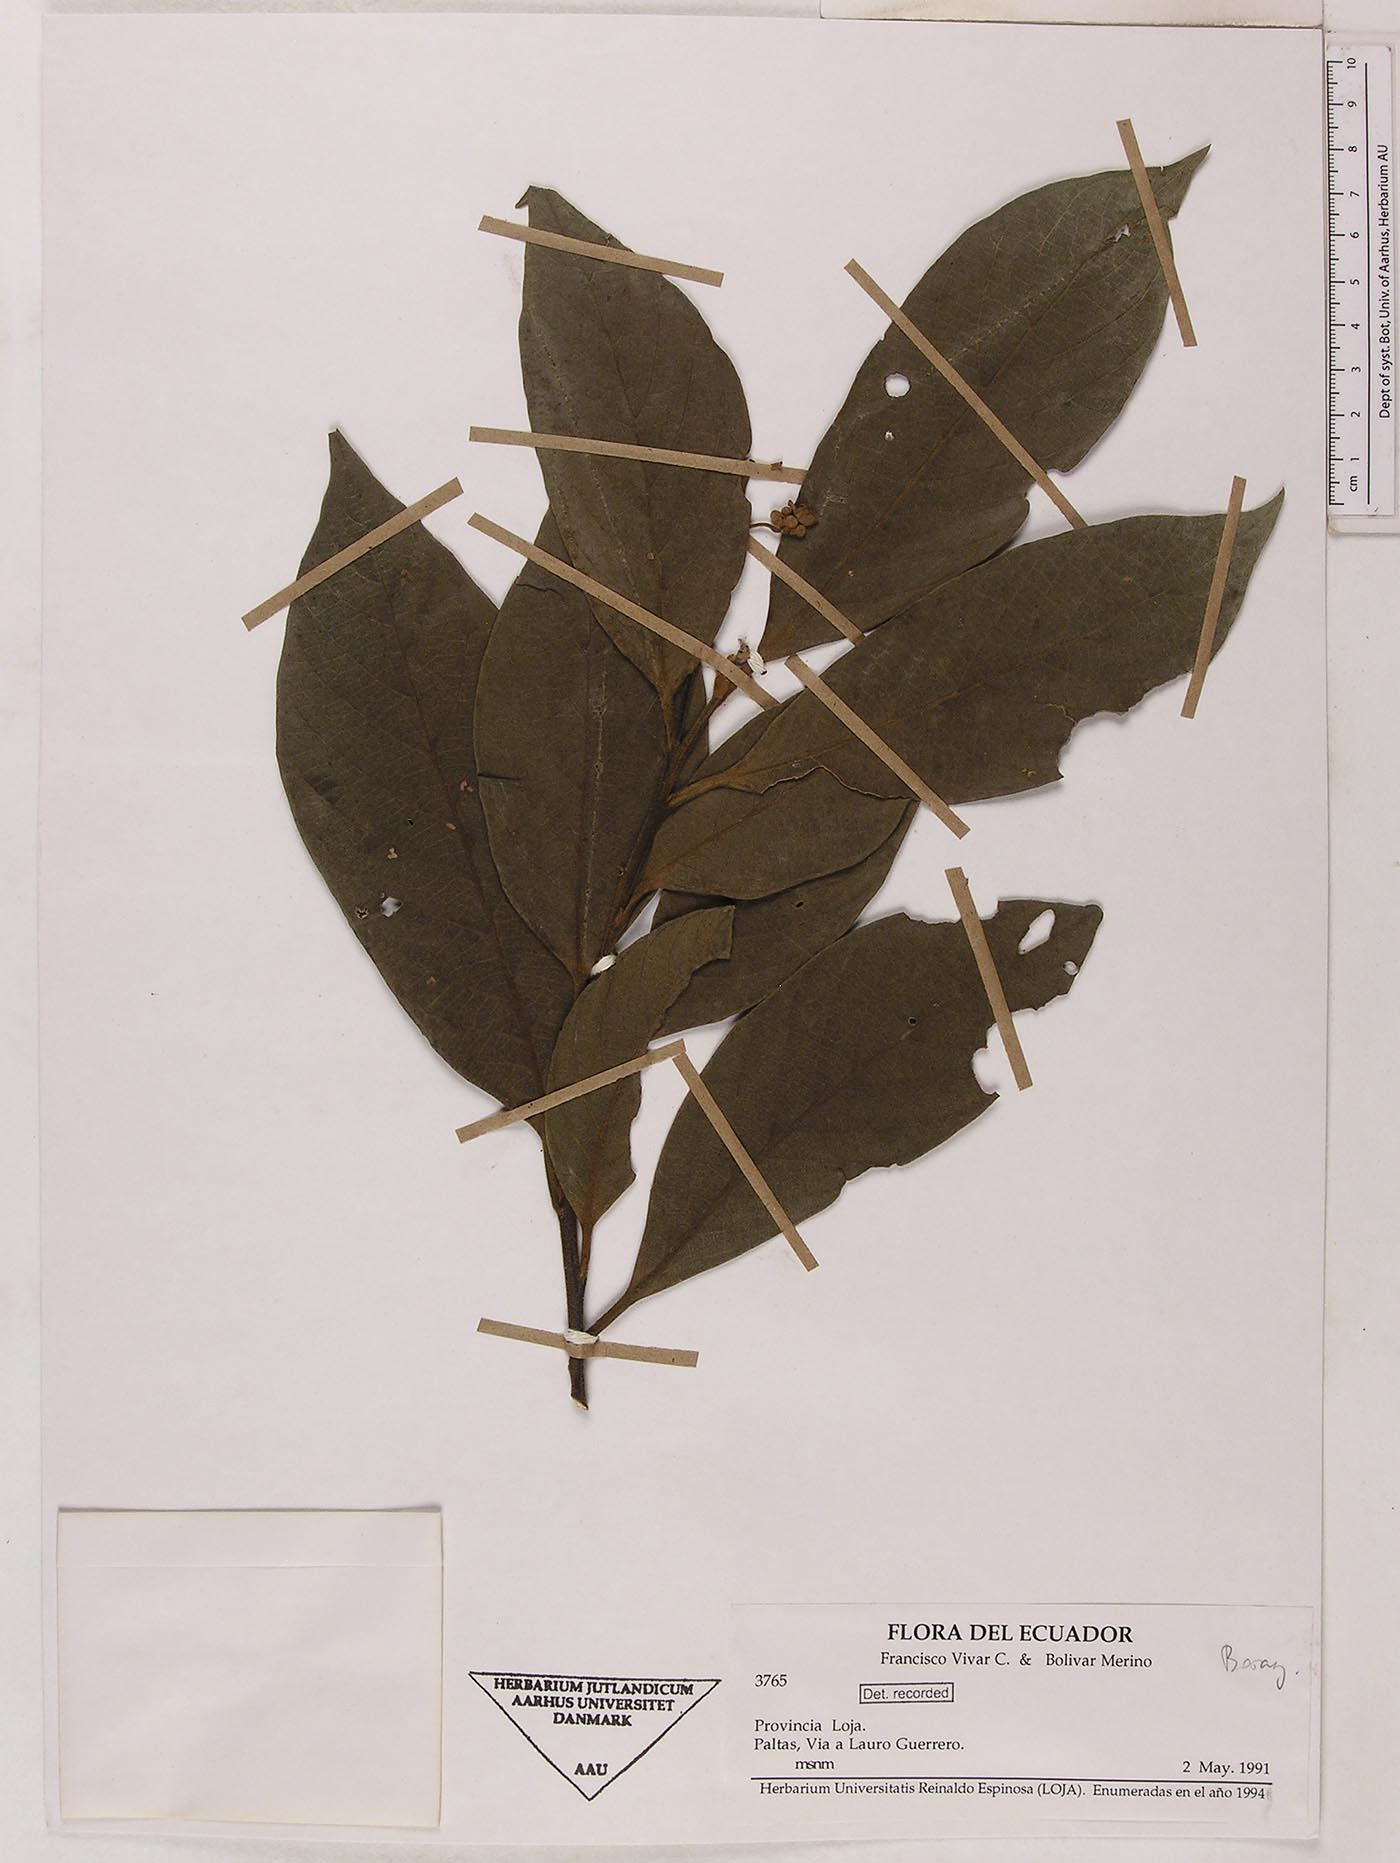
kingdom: Plantae
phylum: Tracheophyta
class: Magnoliopsida
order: Boraginales
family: Boraginaceae
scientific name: Boraginaceae
